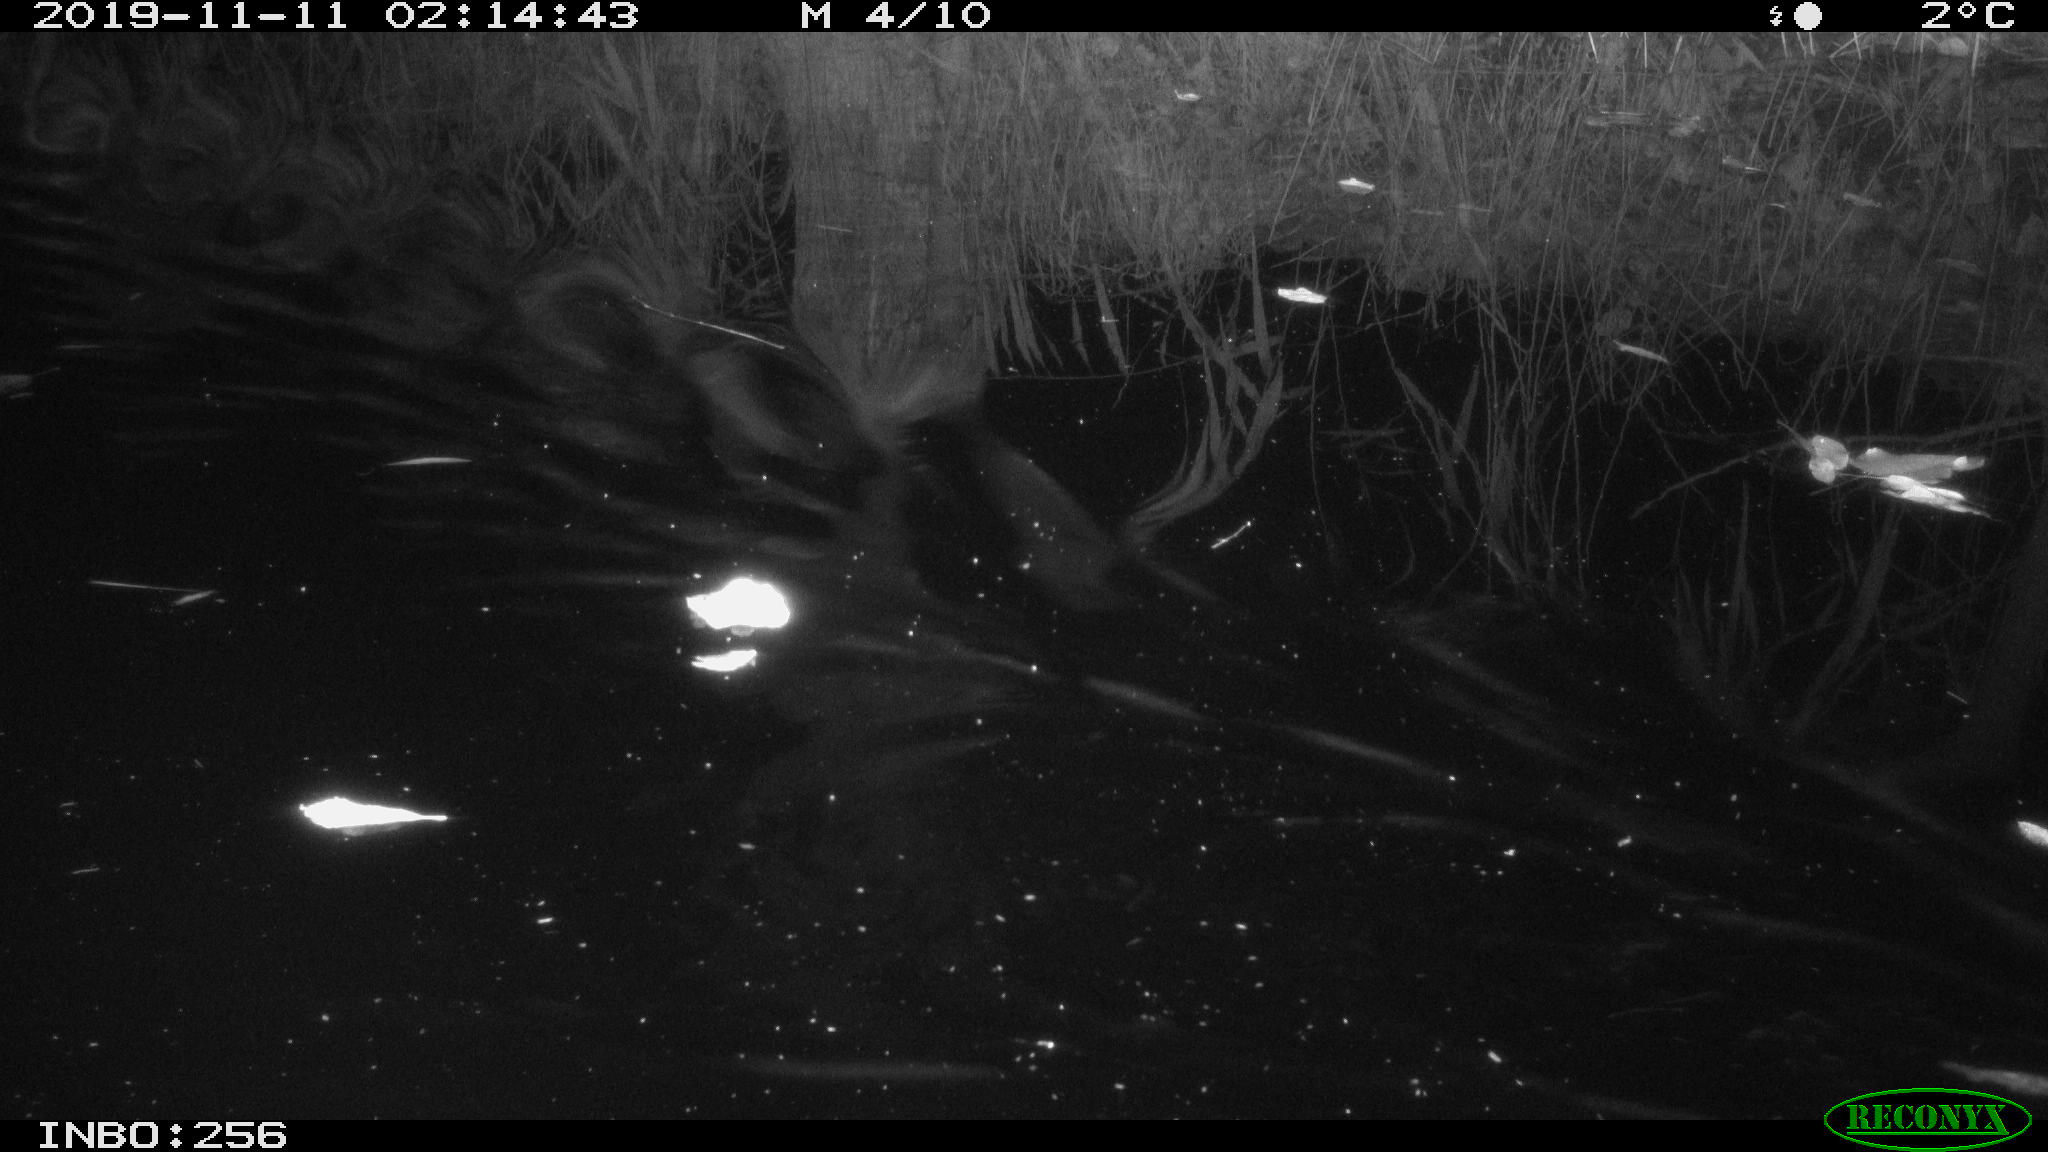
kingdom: Animalia
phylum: Chordata
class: Mammalia
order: Rodentia
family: Cricetidae
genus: Ondatra
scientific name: Ondatra zibethicus
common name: Muskrat
